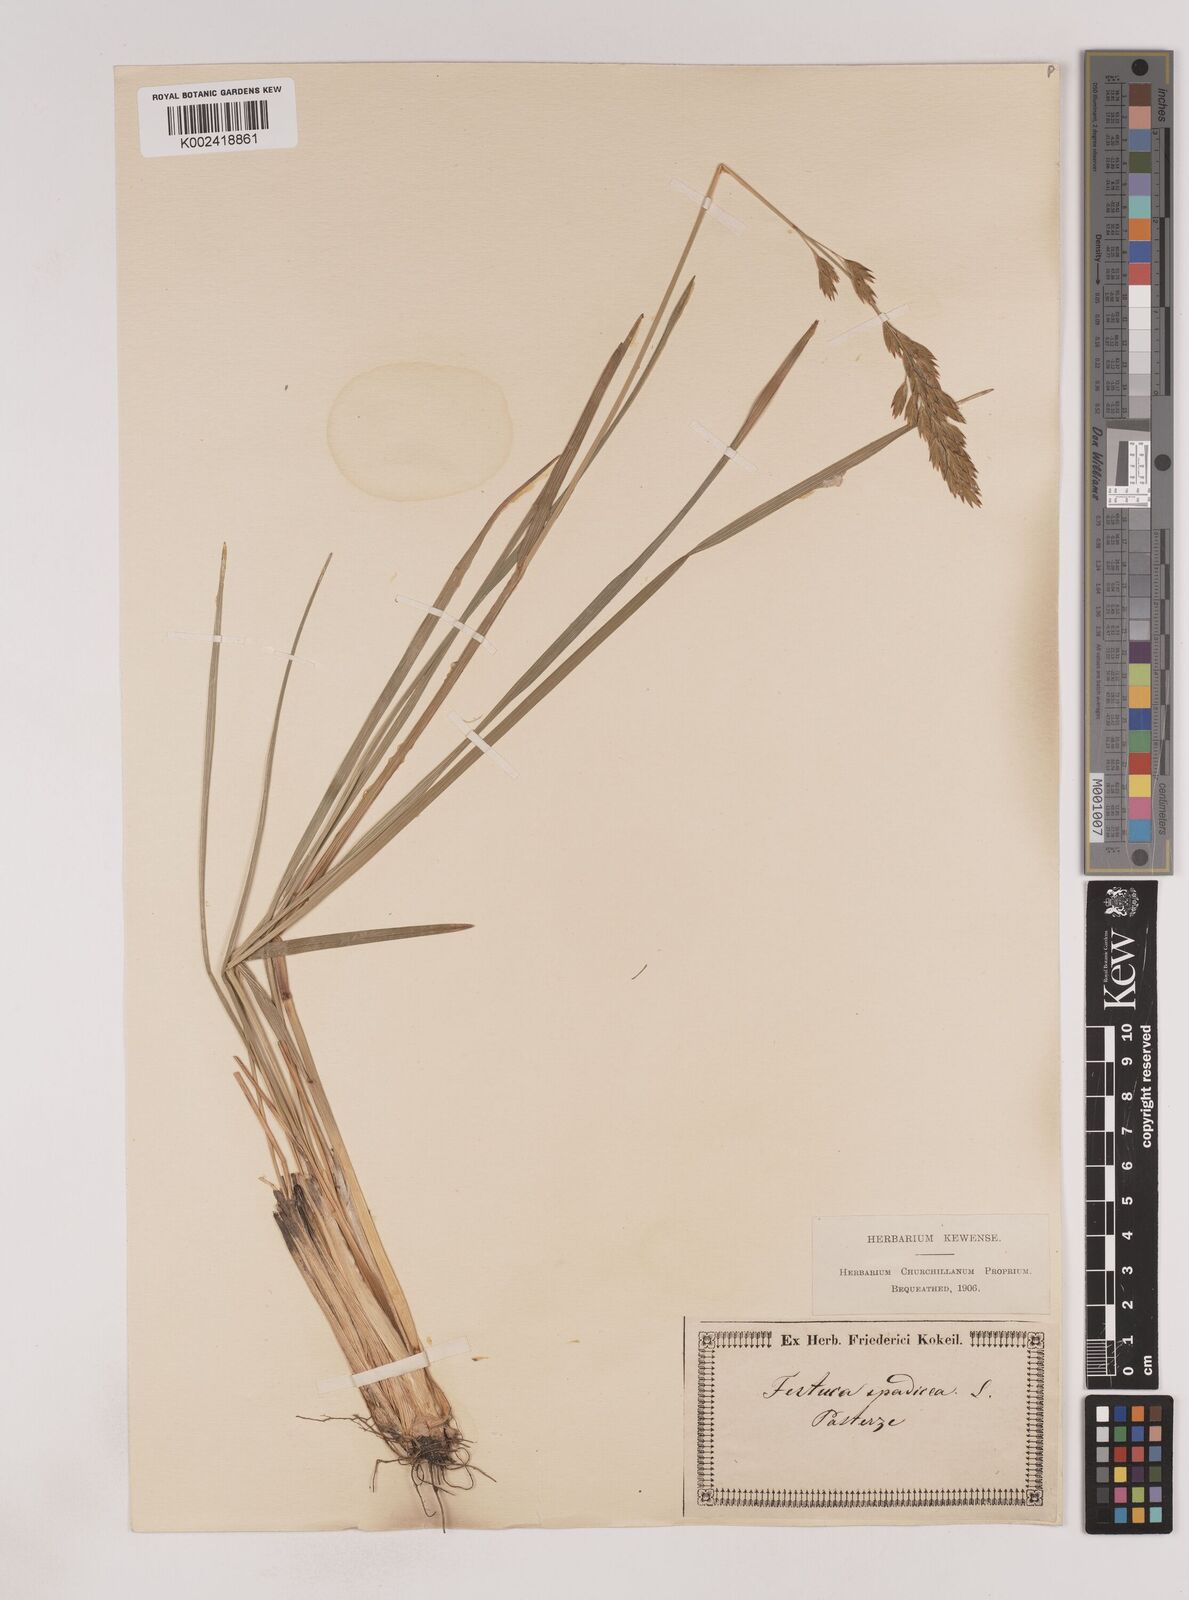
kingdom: Plantae
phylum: Tracheophyta
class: Liliopsida
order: Poales
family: Poaceae
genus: Patzkea
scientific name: Patzkea paniculata
